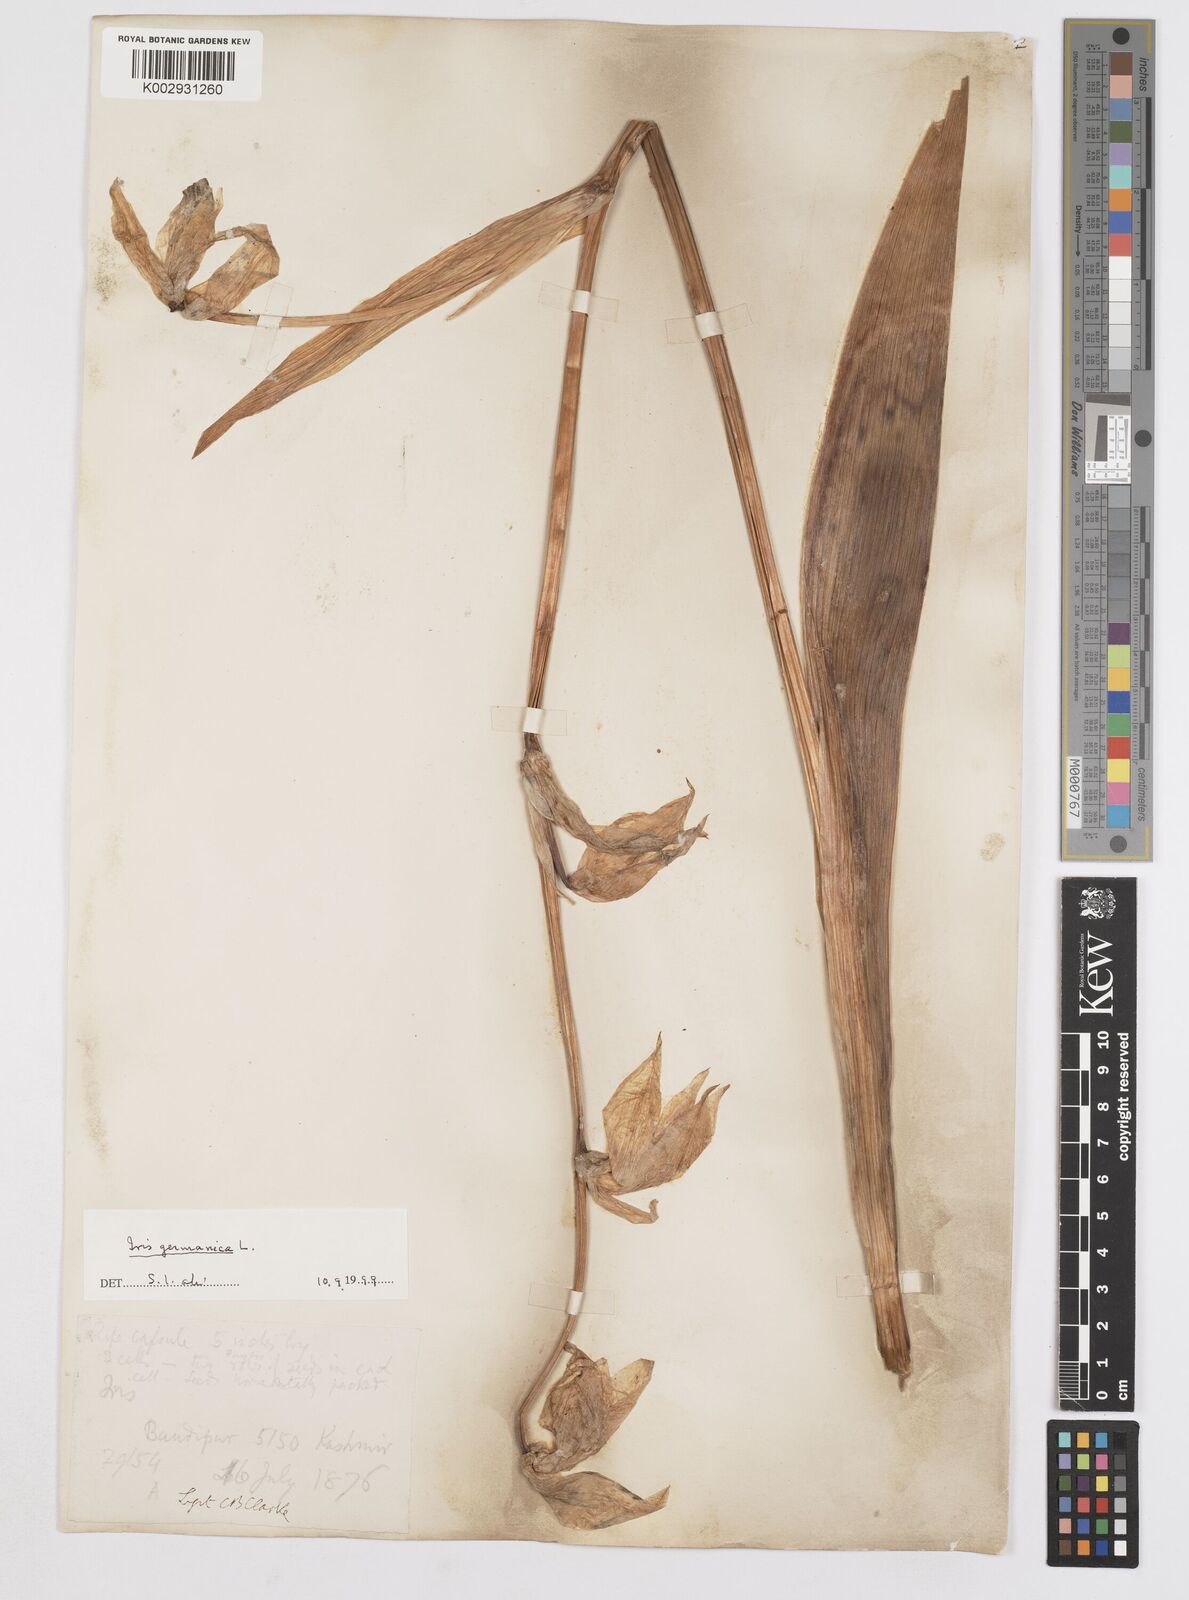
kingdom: Plantae
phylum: Tracheophyta
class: Liliopsida
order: Asparagales
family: Iridaceae
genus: Iris
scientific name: Iris germanica
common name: German iris
